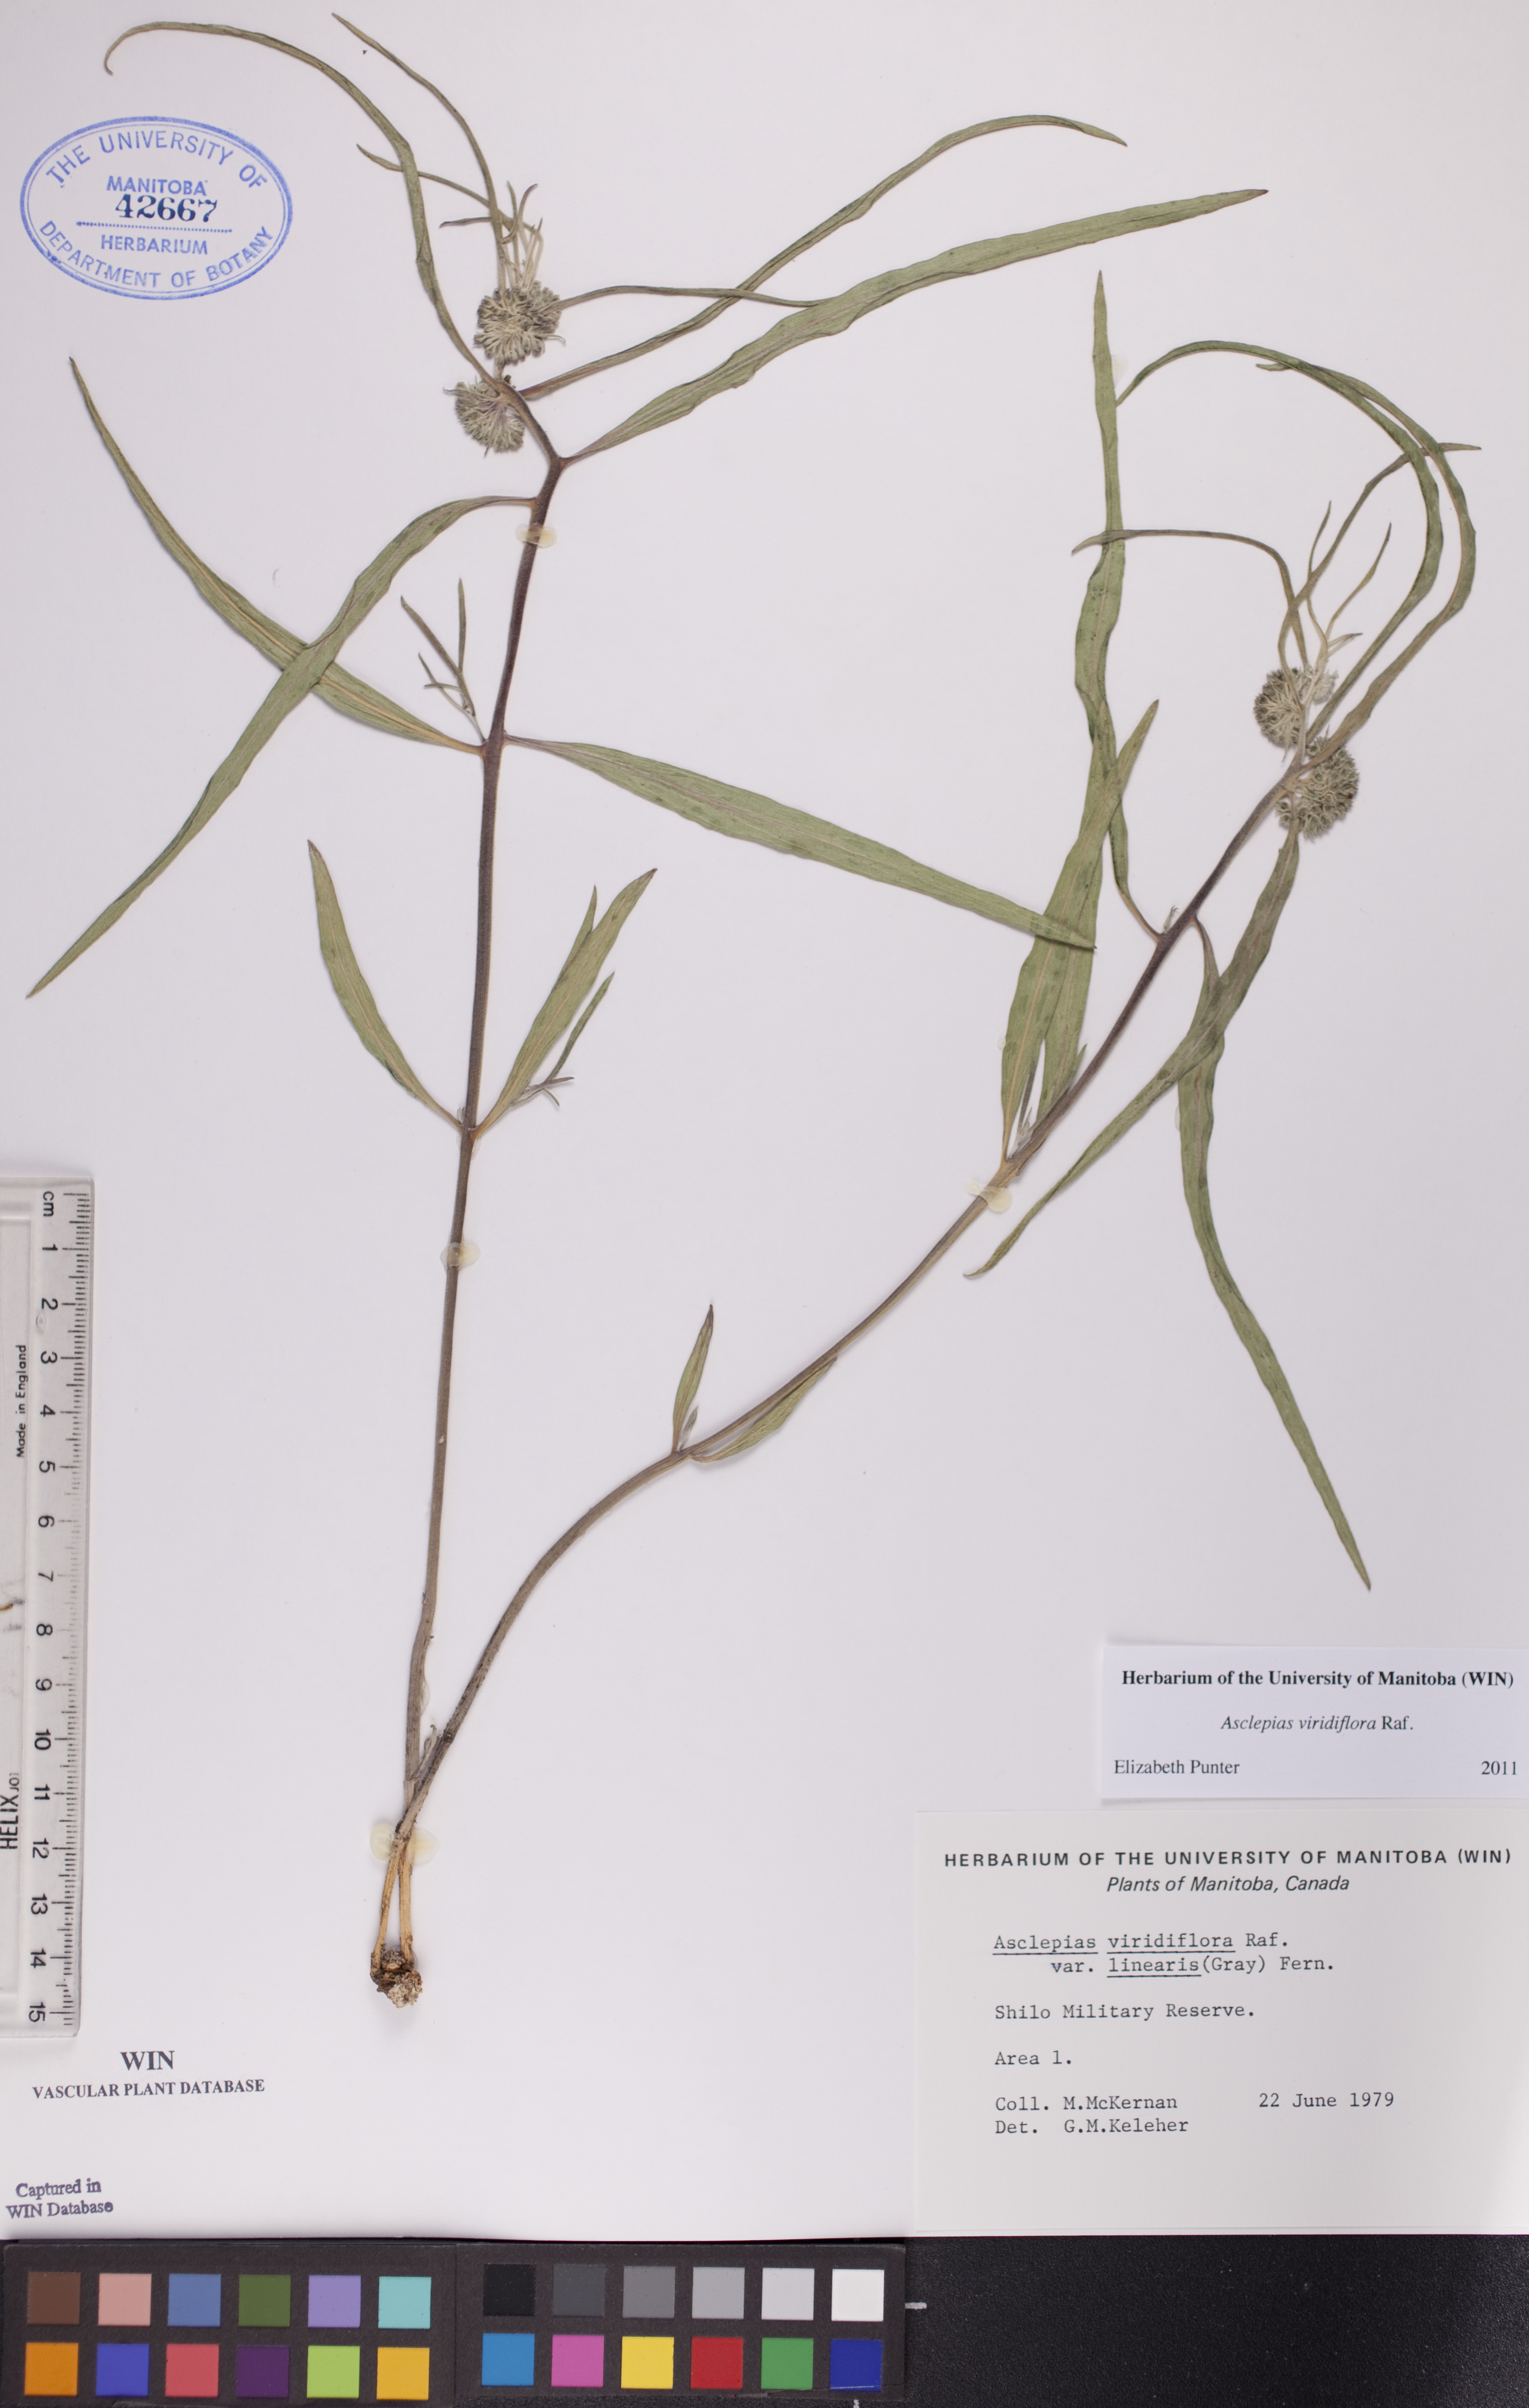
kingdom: Plantae
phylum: Tracheophyta
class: Magnoliopsida
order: Gentianales
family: Apocynaceae
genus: Asclepias
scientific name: Asclepias linearis
